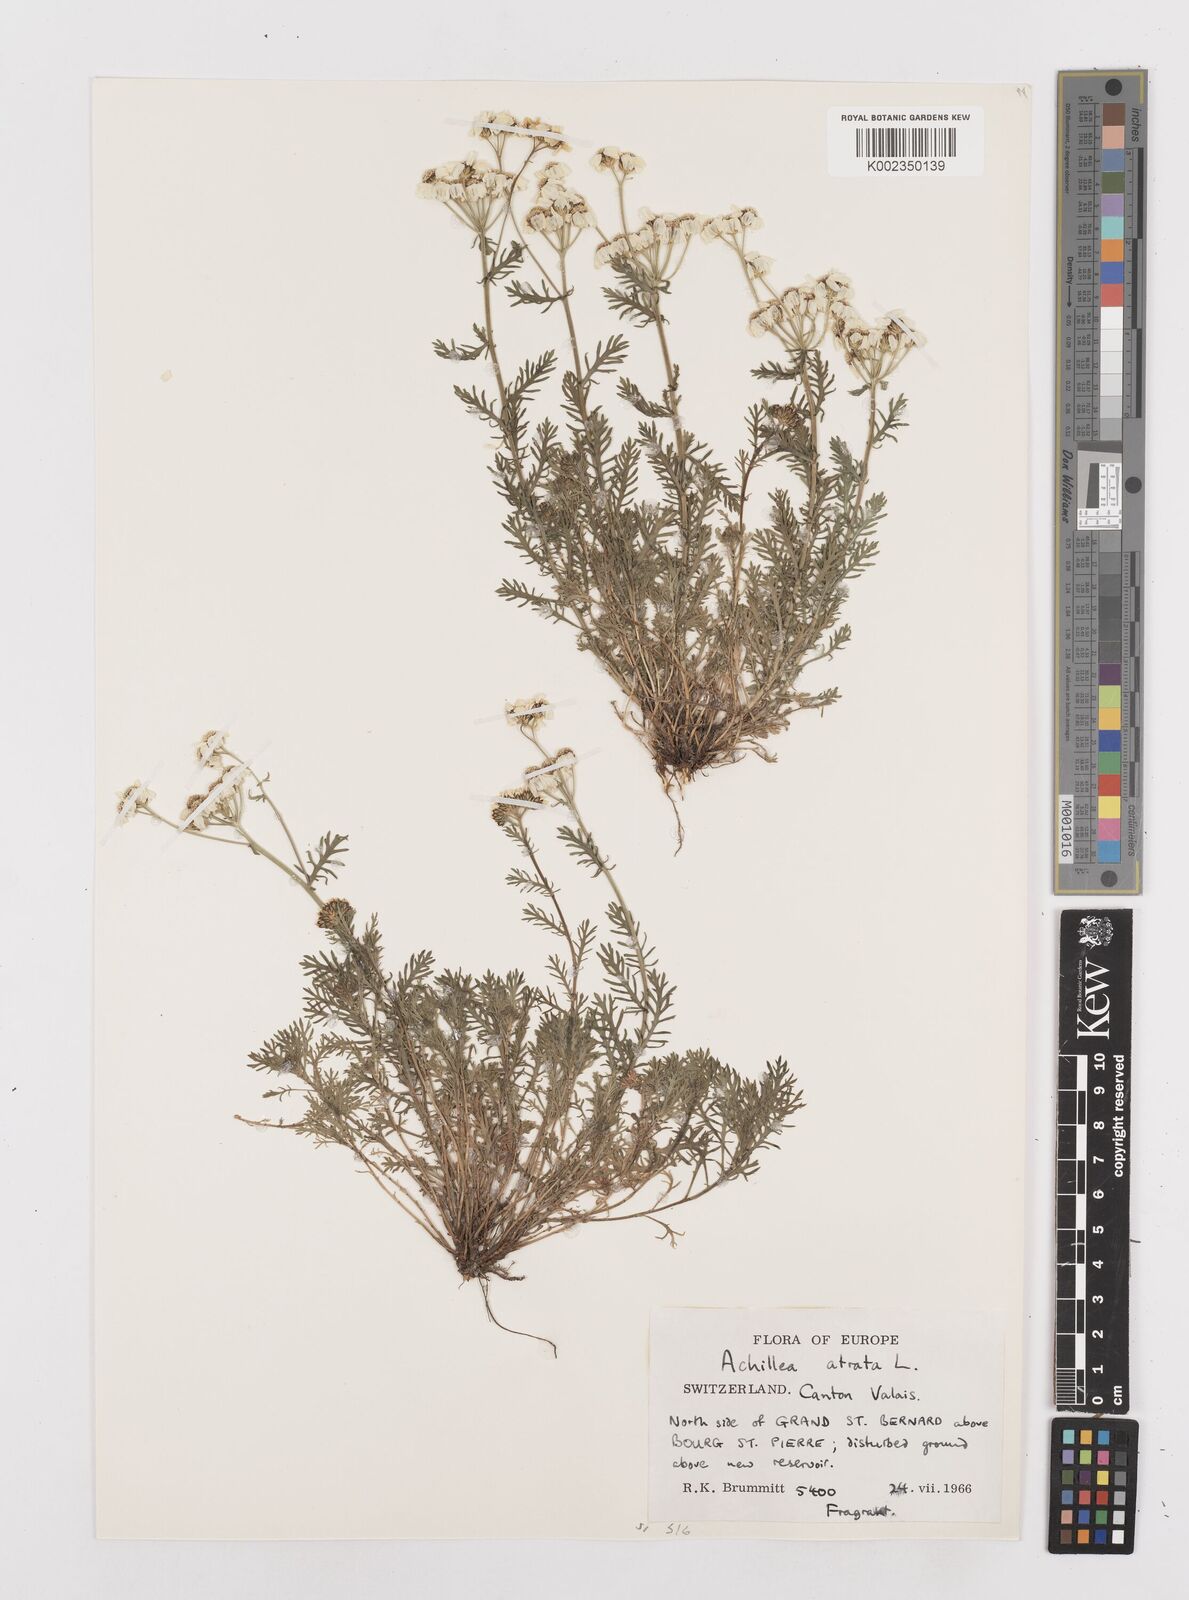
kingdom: Plantae
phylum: Tracheophyta
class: Magnoliopsida
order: Asterales
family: Asteraceae
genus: Achillea
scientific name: Achillea atrata
